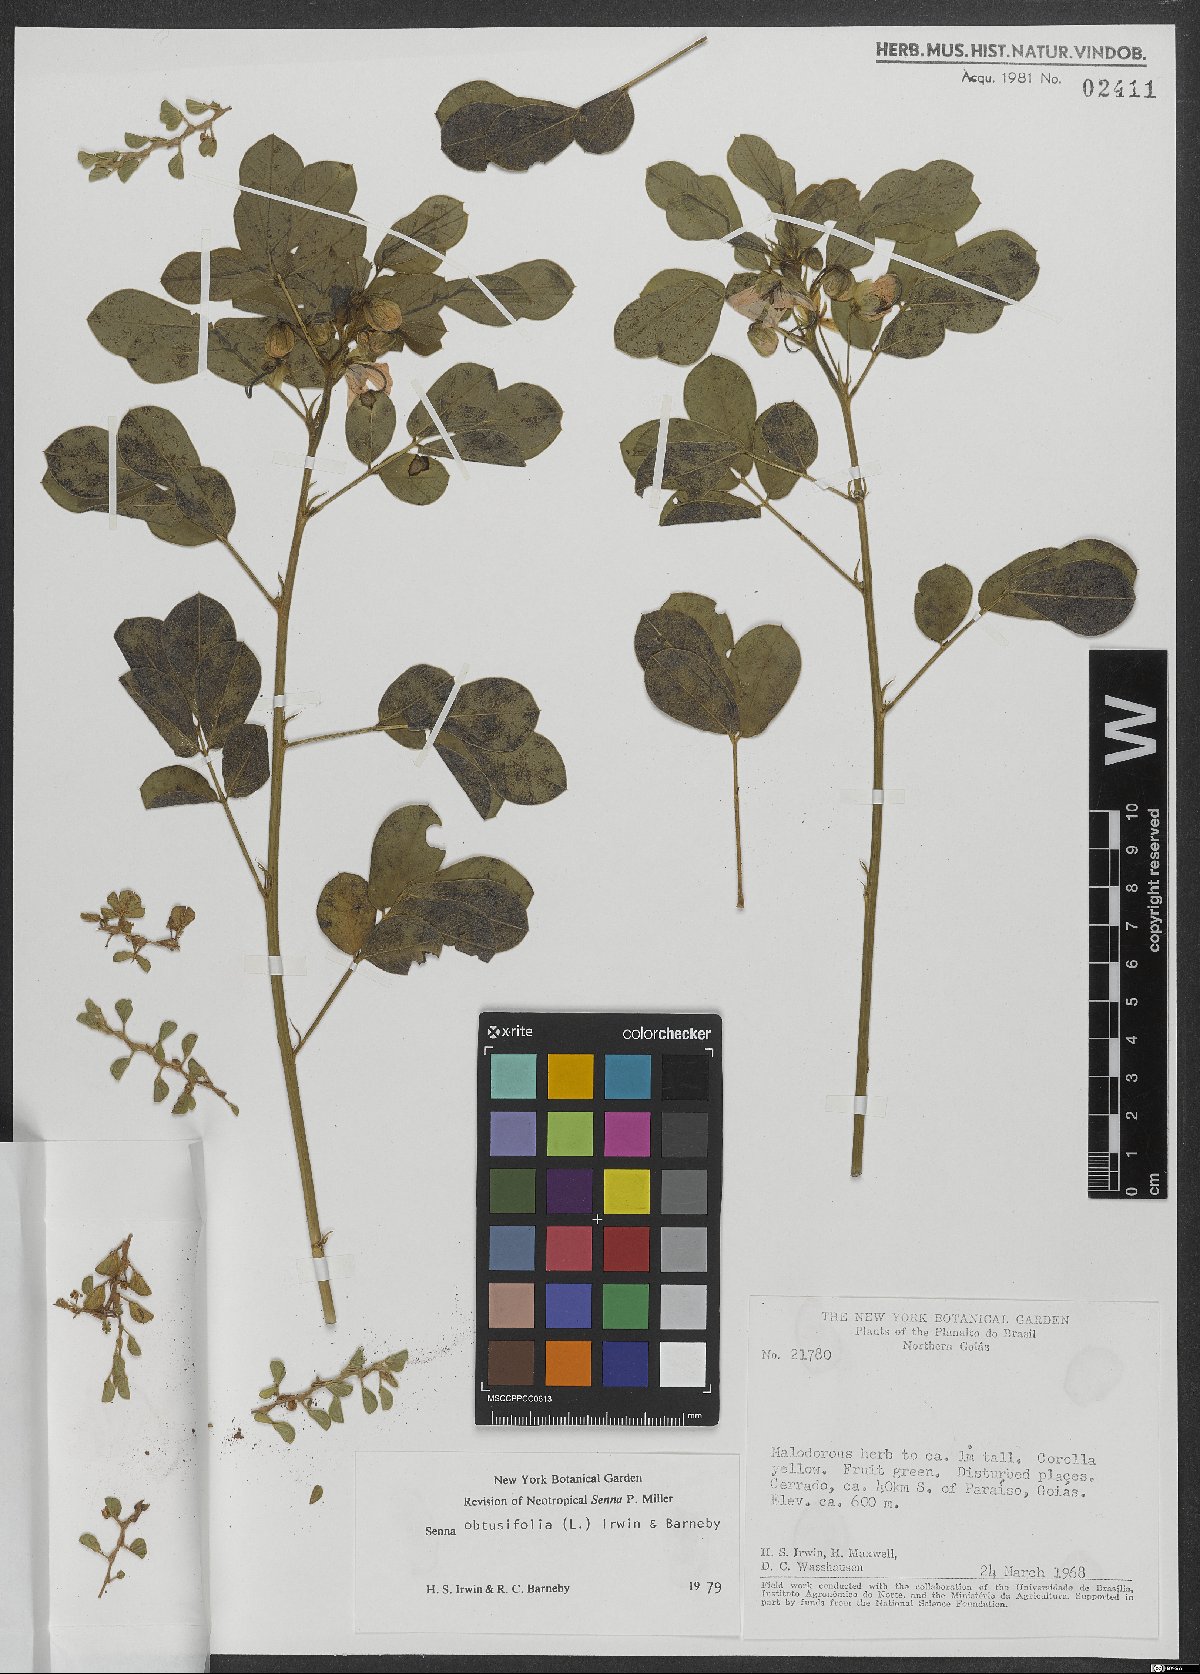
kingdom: Plantae
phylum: Tracheophyta
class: Magnoliopsida
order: Fabales
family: Fabaceae
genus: Senna
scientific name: Senna obtusifolia
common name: Java-bean
